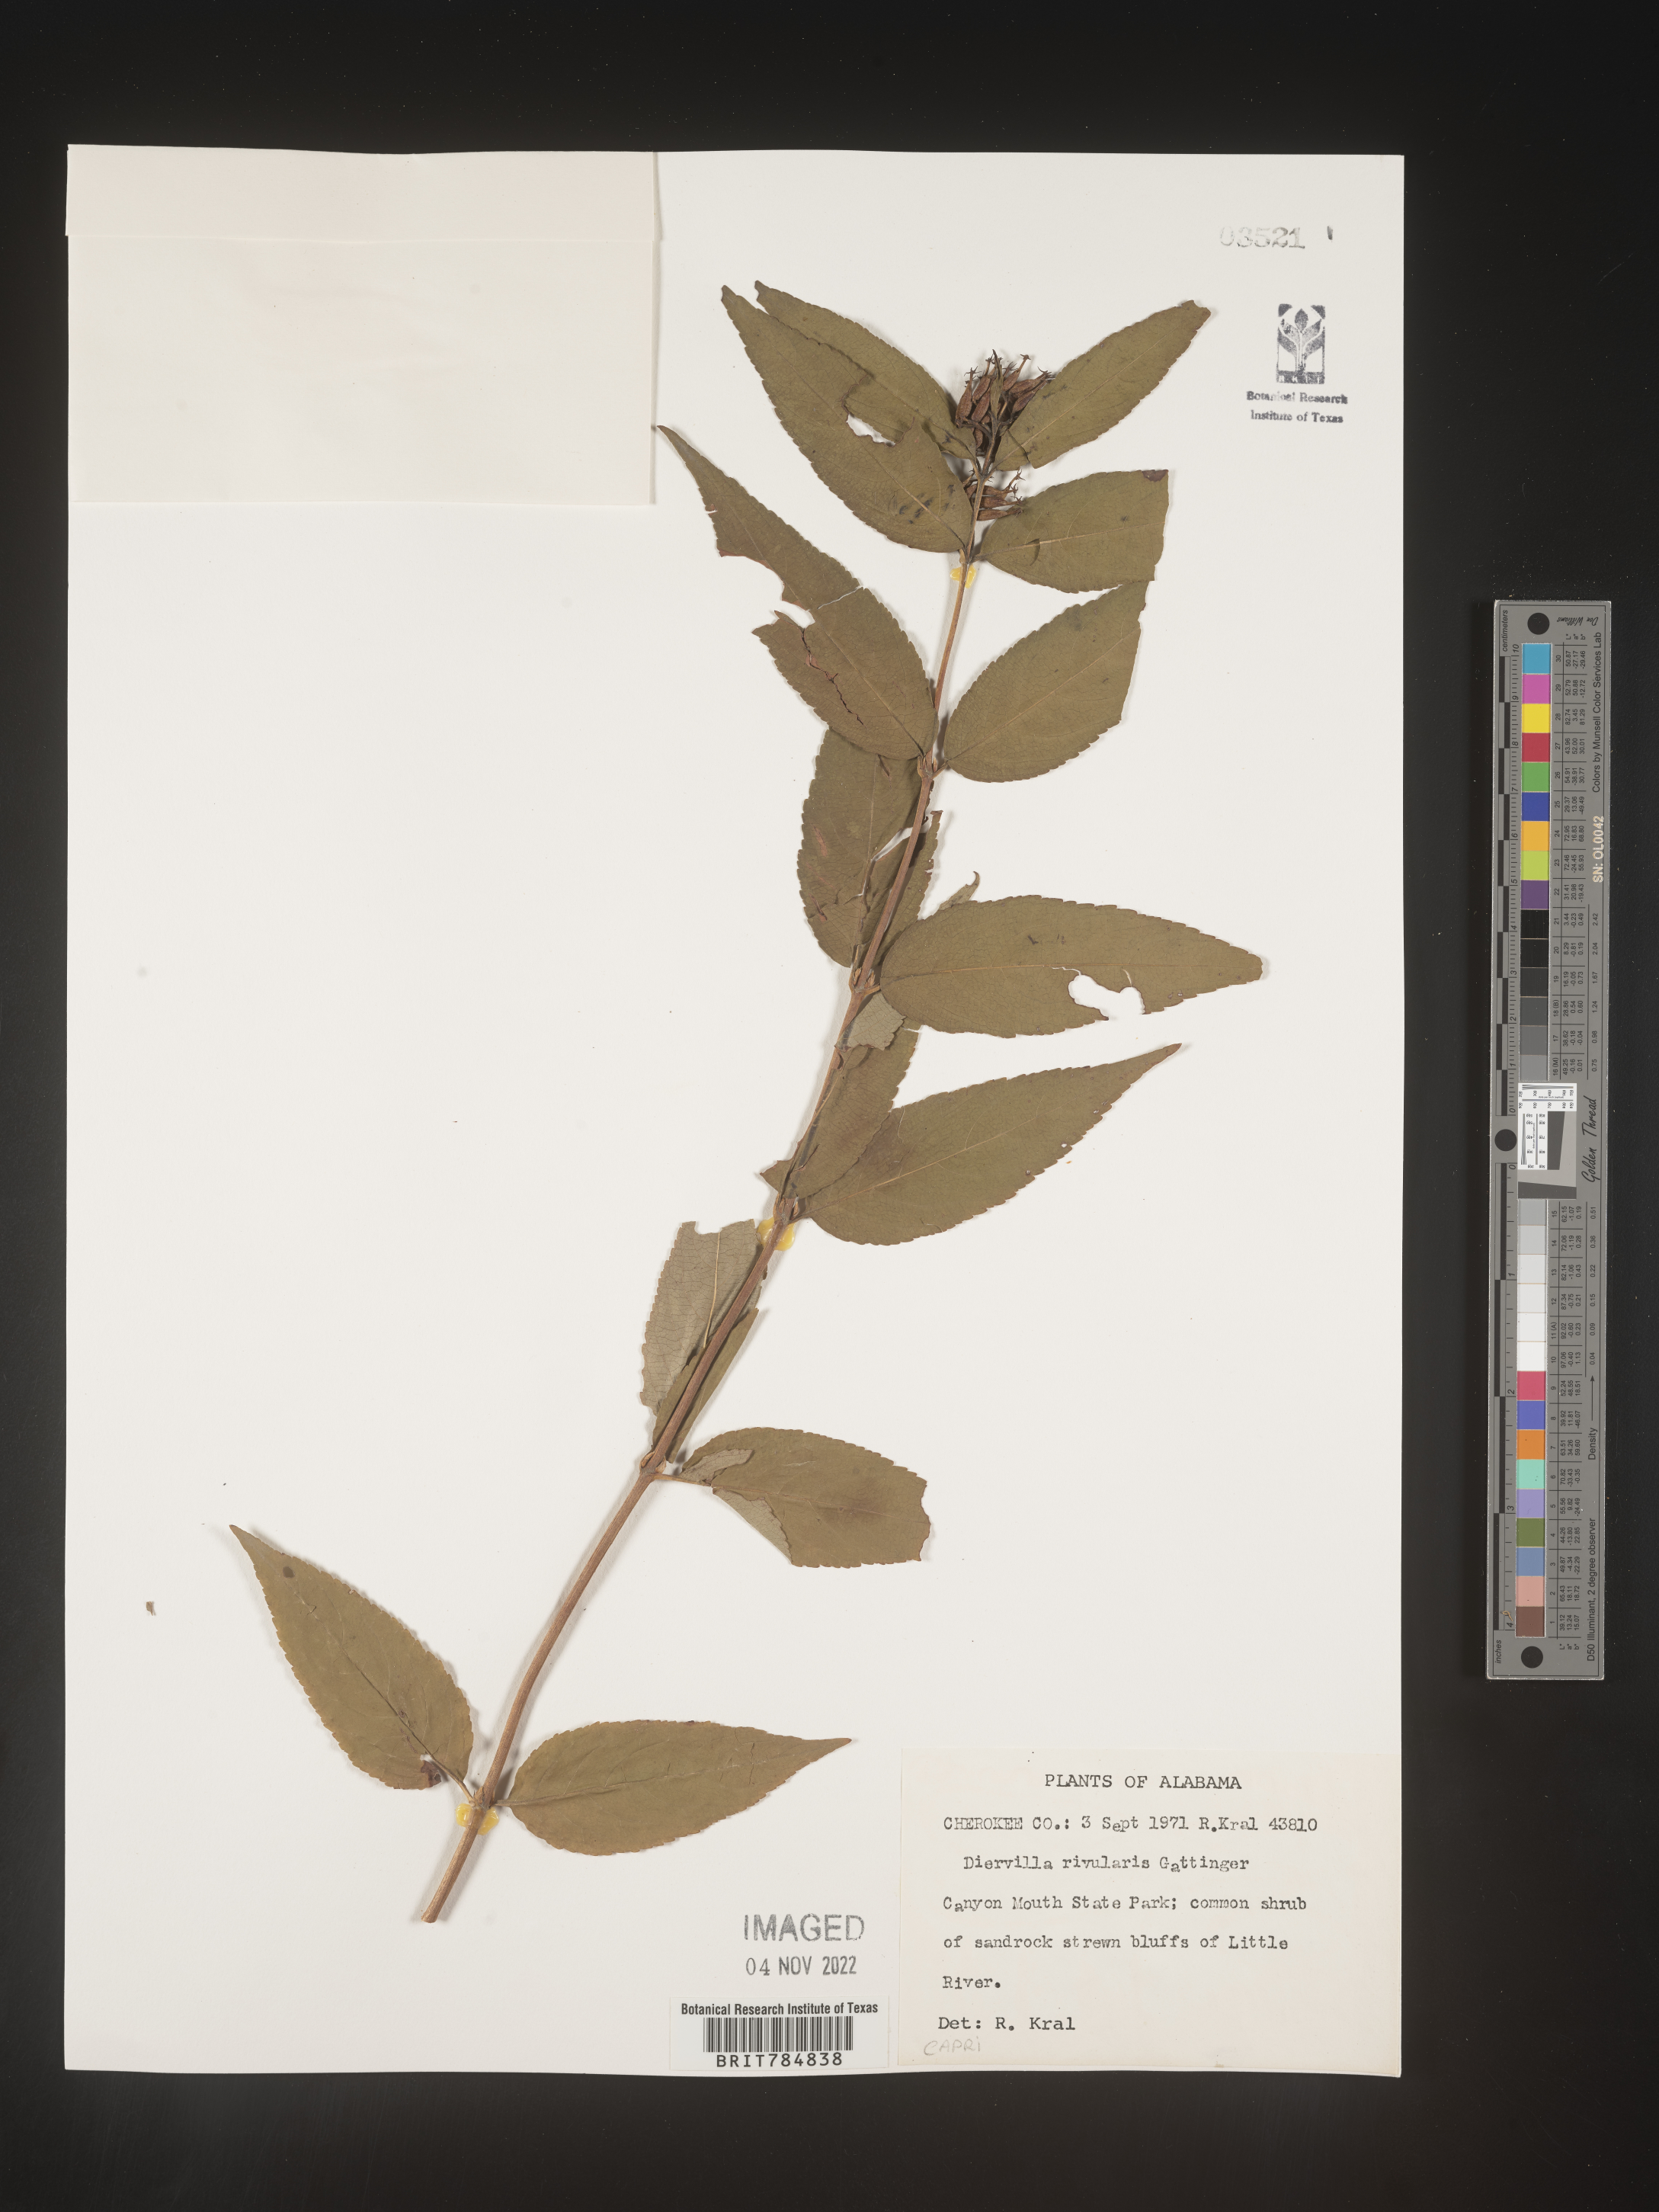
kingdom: Plantae
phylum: Tracheophyta
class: Magnoliopsida
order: Dipsacales
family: Caprifoliaceae
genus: Diervilla
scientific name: Diervilla rivularis
